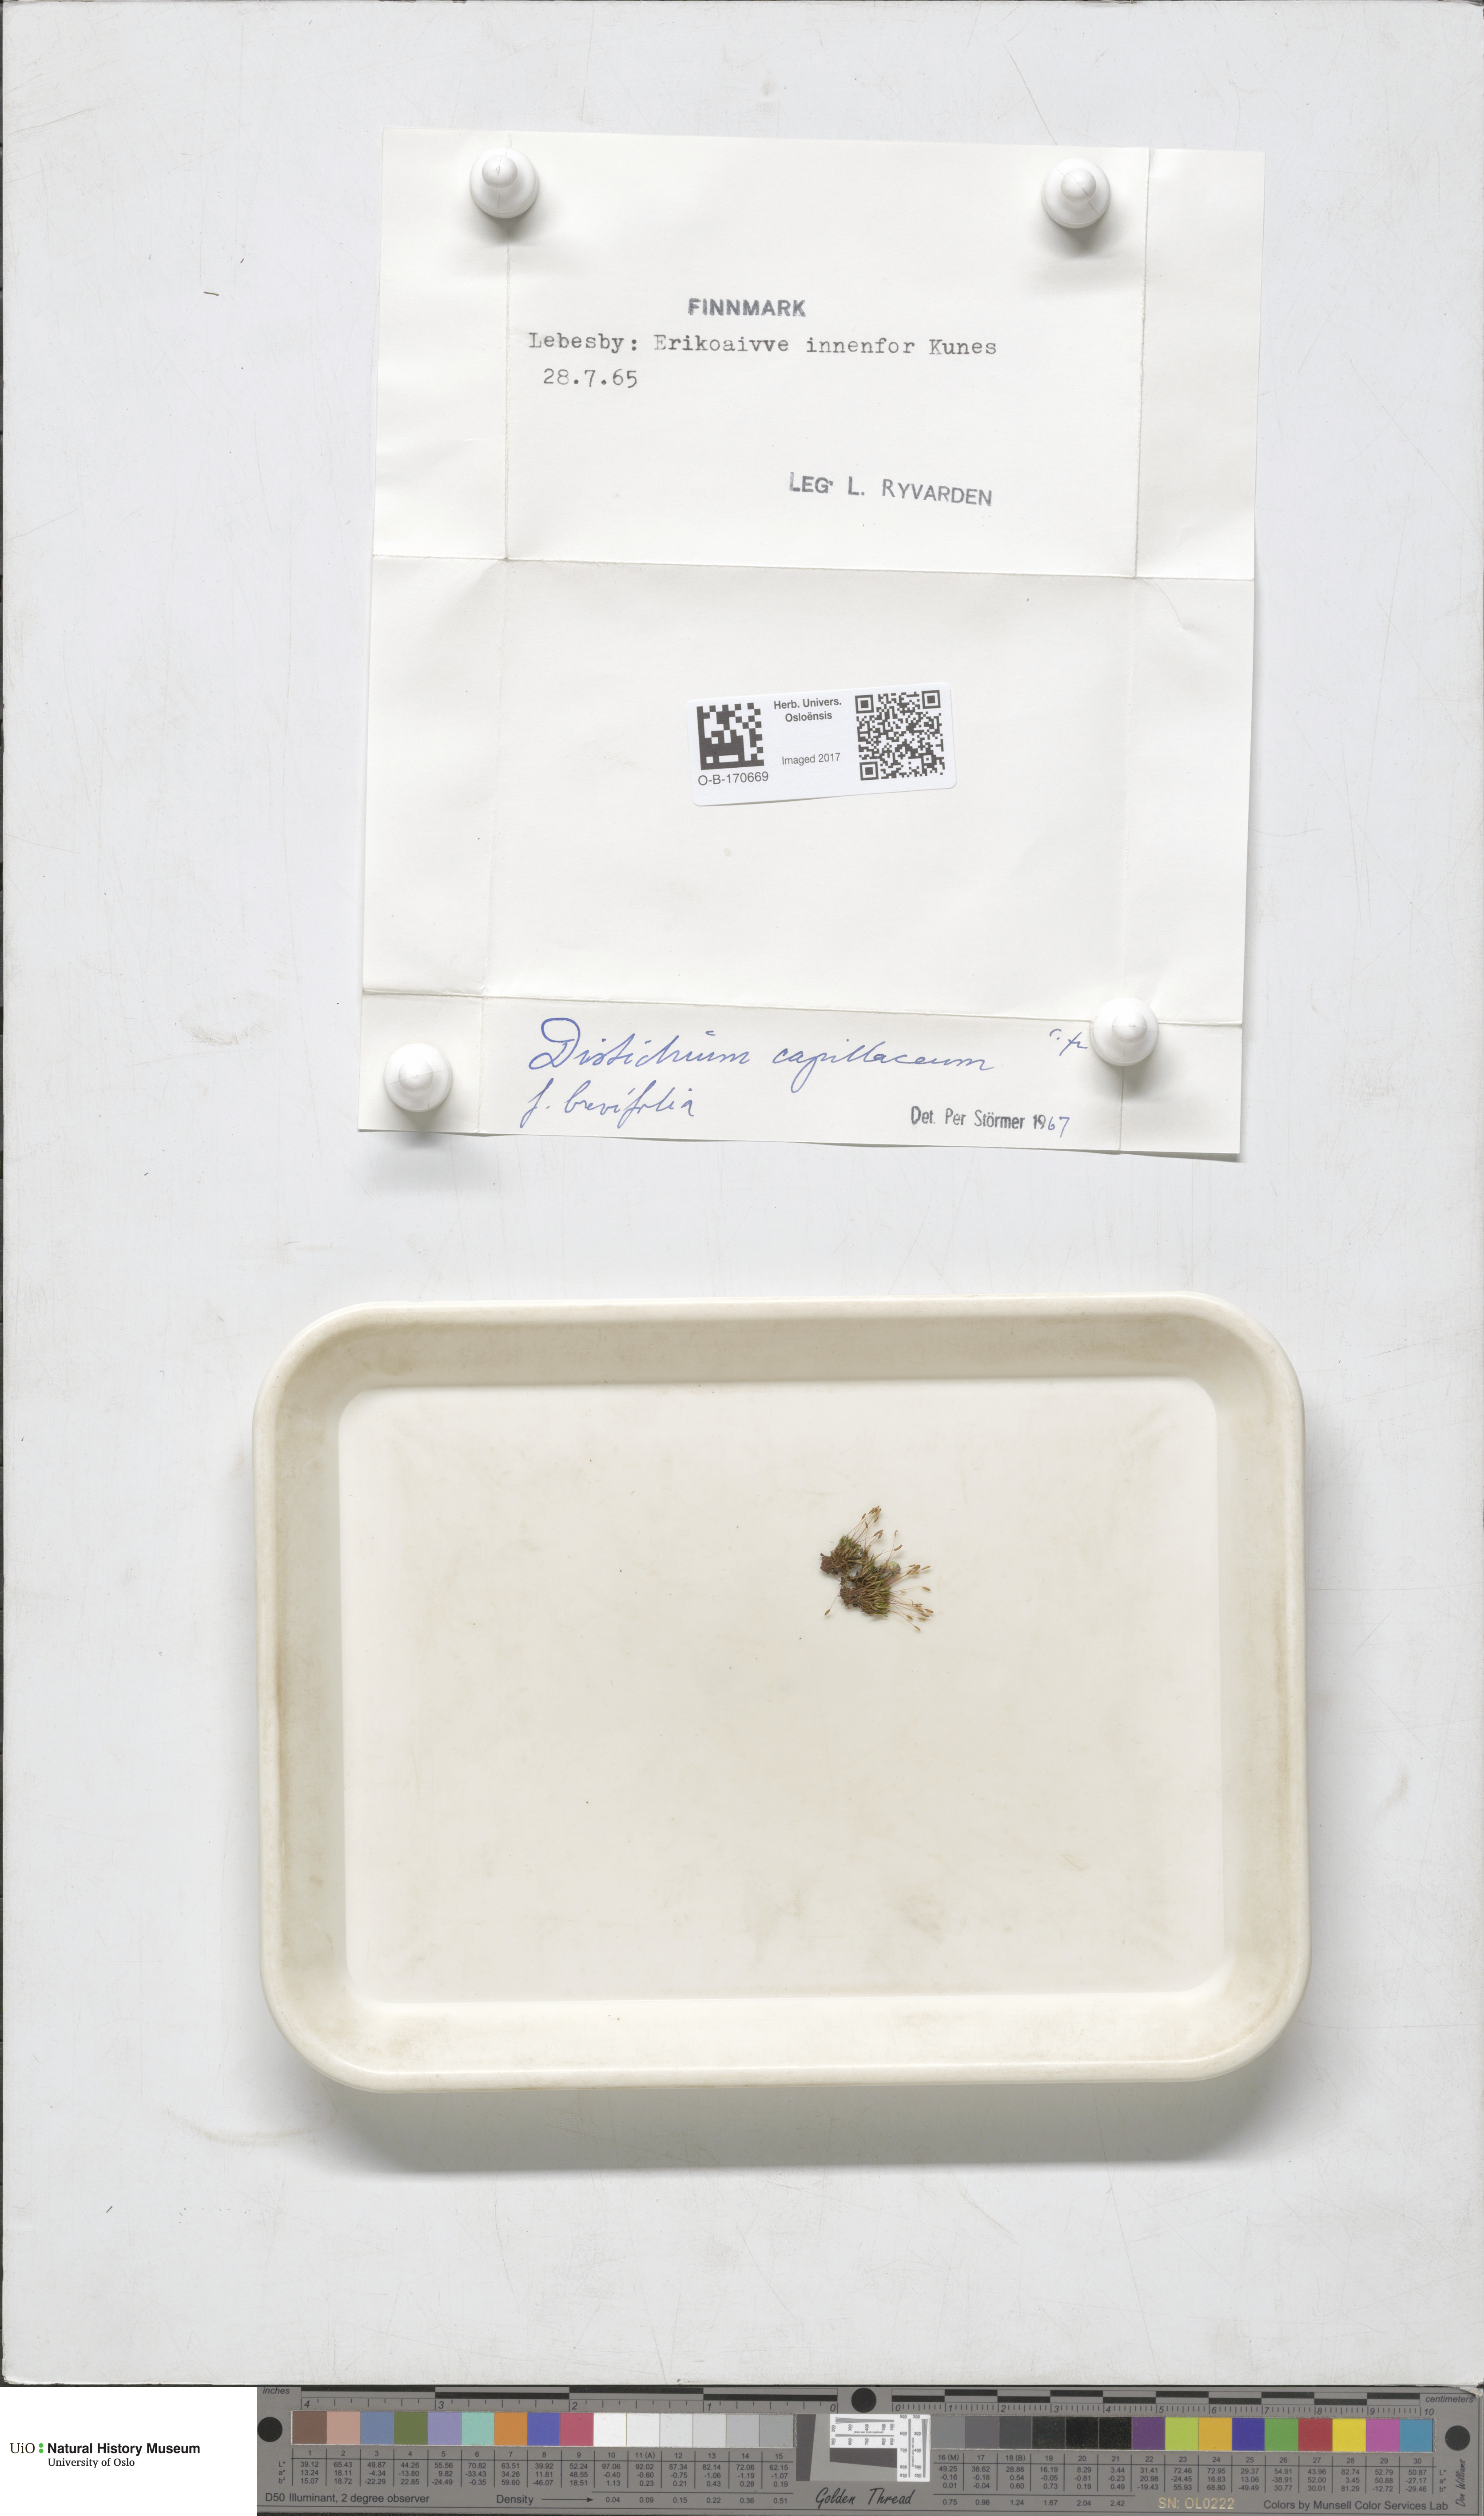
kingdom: Plantae
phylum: Bryophyta
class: Bryopsida
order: Scouleriales
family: Distichiaceae
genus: Distichium
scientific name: Distichium capillaceum
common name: Erect-fruited iris moss
